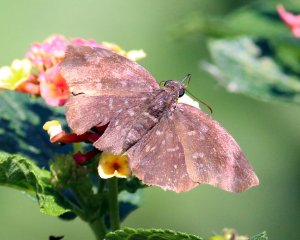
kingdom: Animalia
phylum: Arthropoda
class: Insecta
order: Lepidoptera
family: Hesperiidae
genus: Achlyodes
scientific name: Achlyodes thraso
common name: Sickle-winged Skipper
